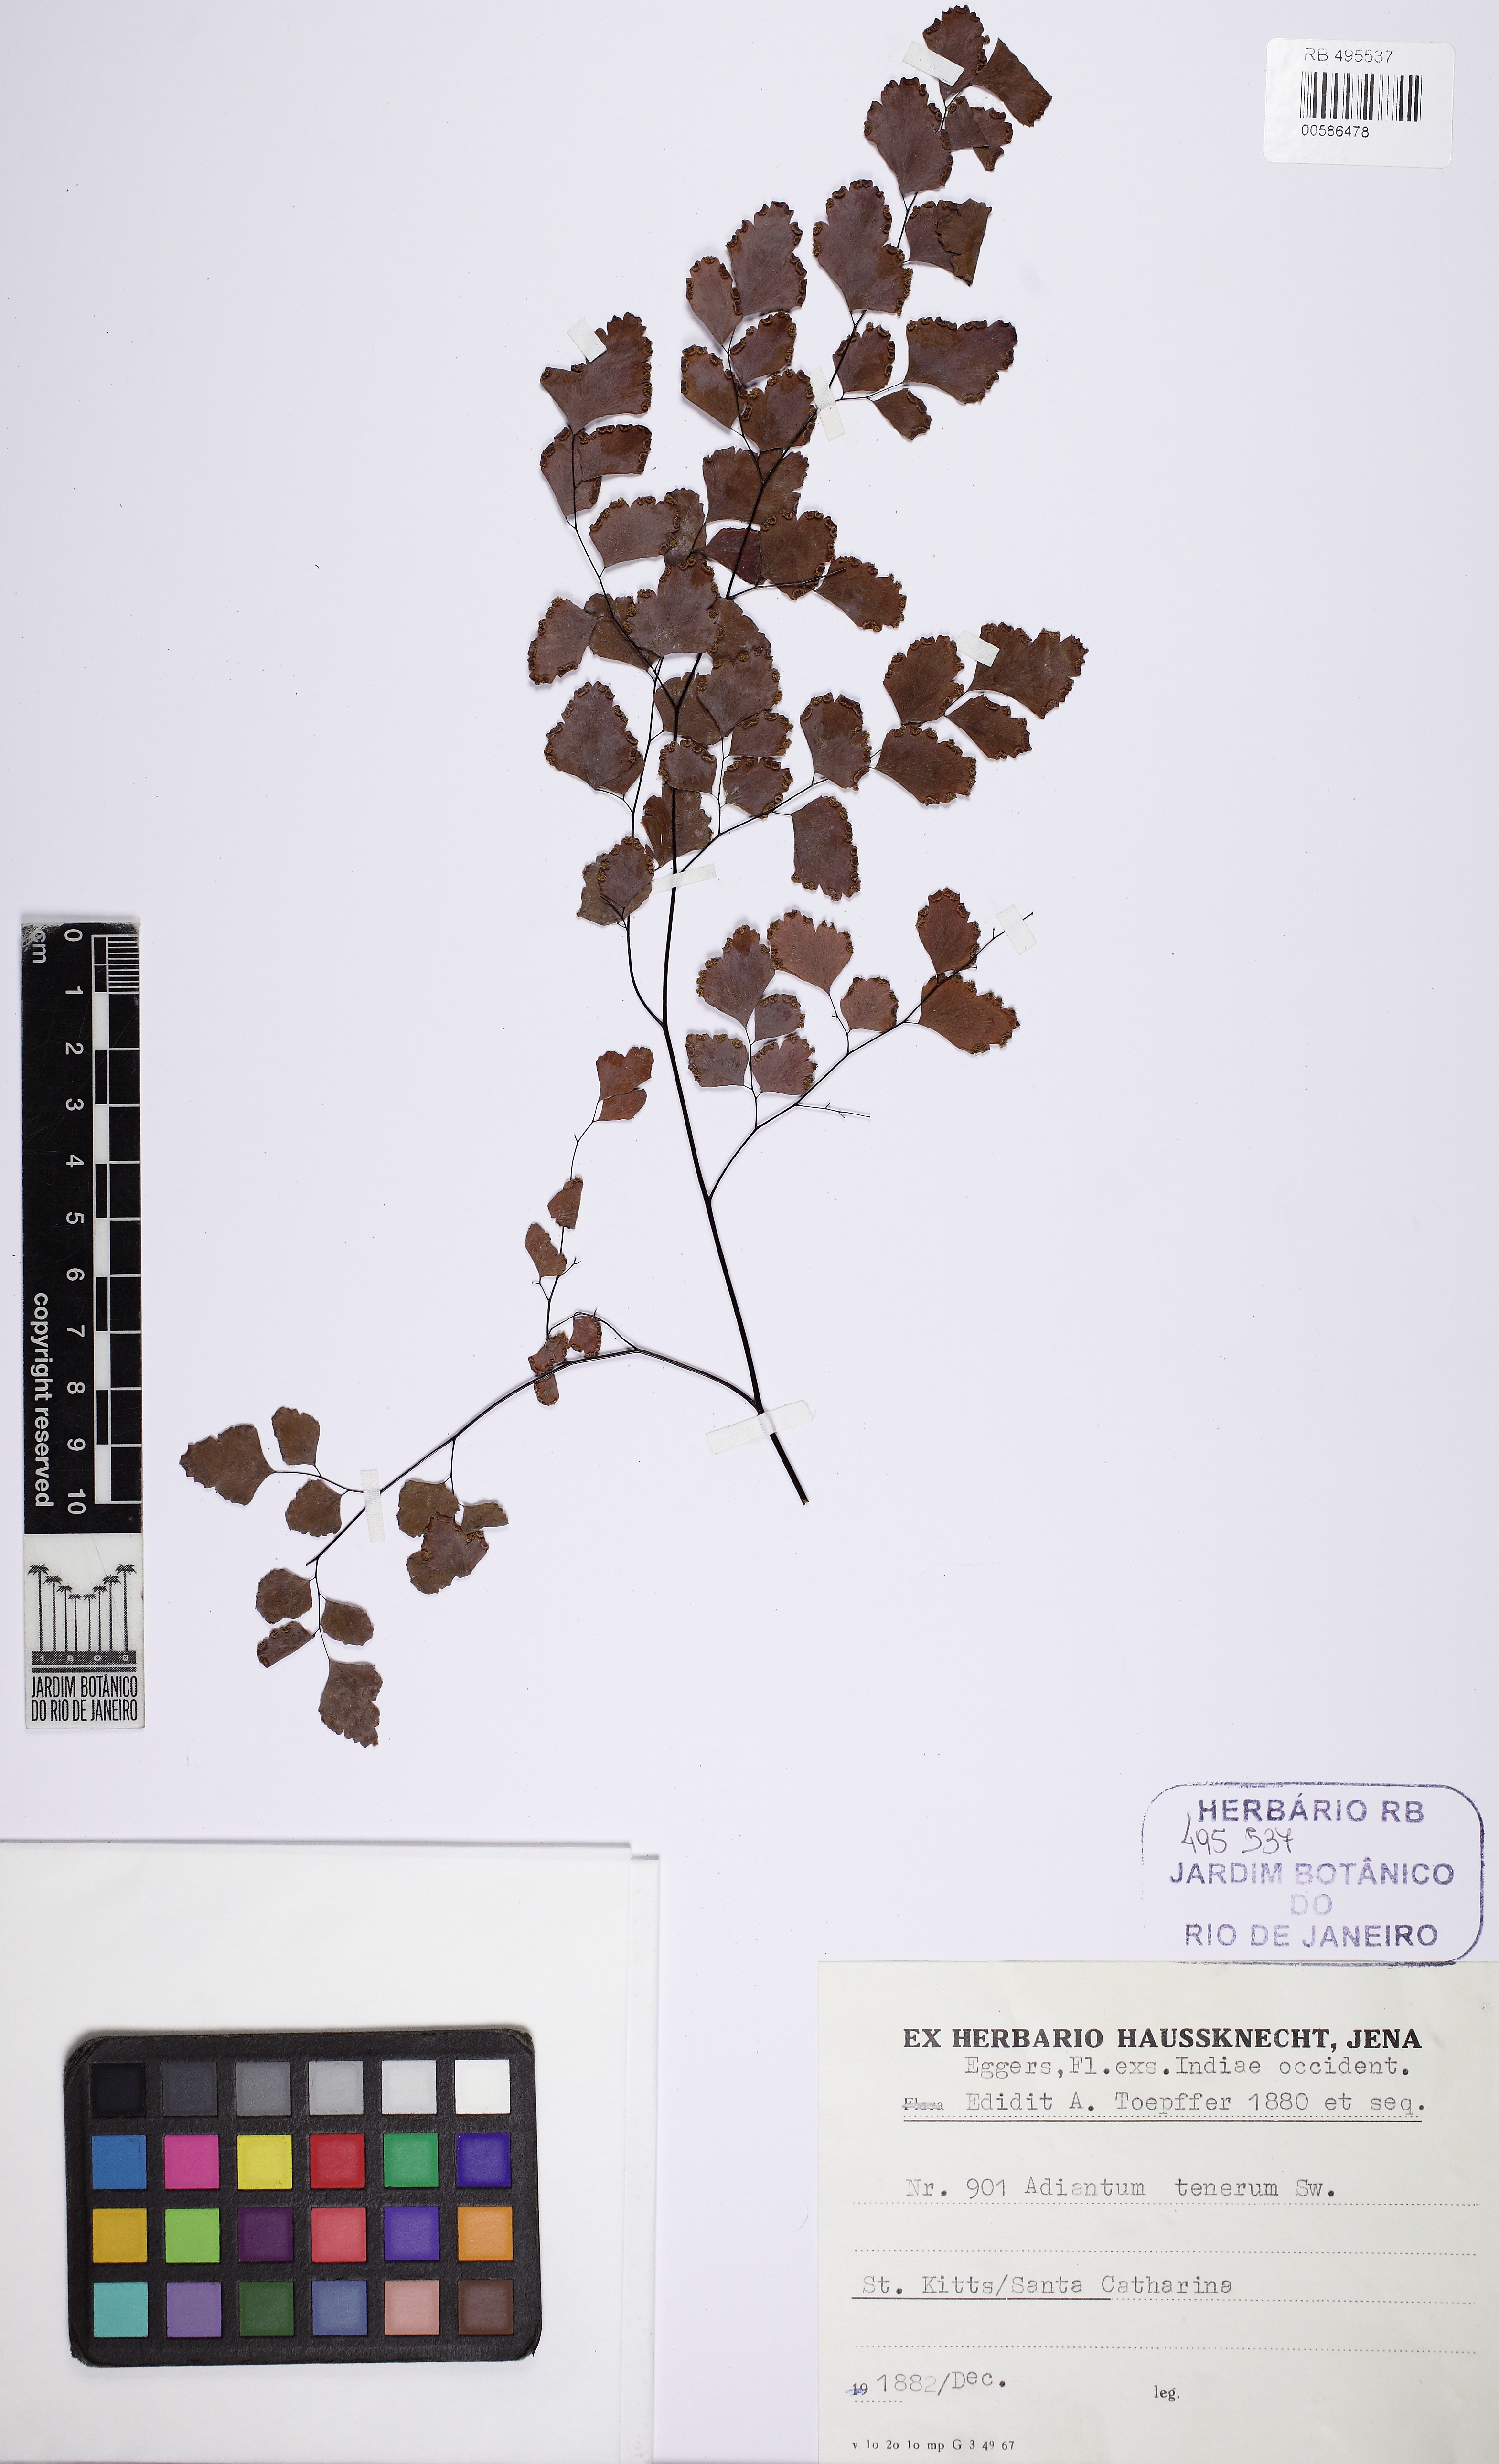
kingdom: Plantae
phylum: Tracheophyta
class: Polypodiopsida
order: Polypodiales
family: Pteridaceae
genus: Adiantum
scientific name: Adiantum tenerum
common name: Fan maidenhair
